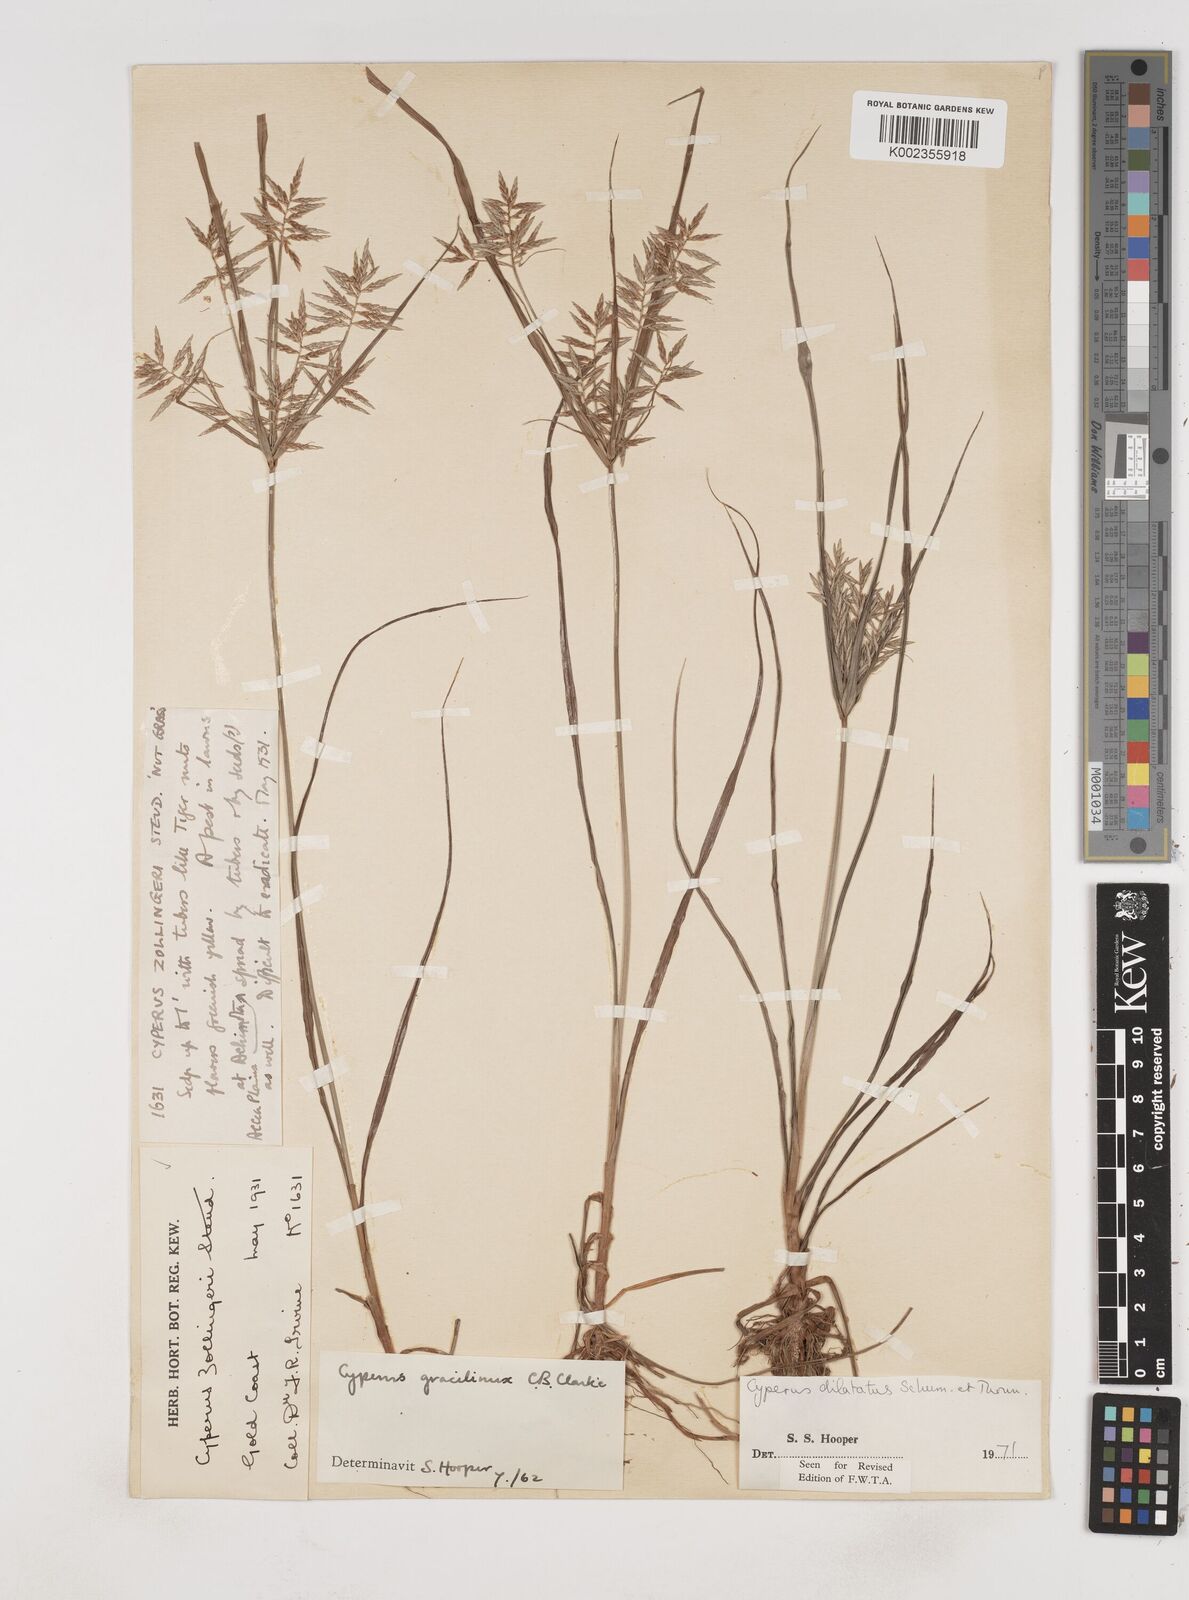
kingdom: Plantae
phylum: Tracheophyta
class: Liliopsida
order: Poales
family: Cyperaceae
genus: Cyperus
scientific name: Cyperus dilatatus
